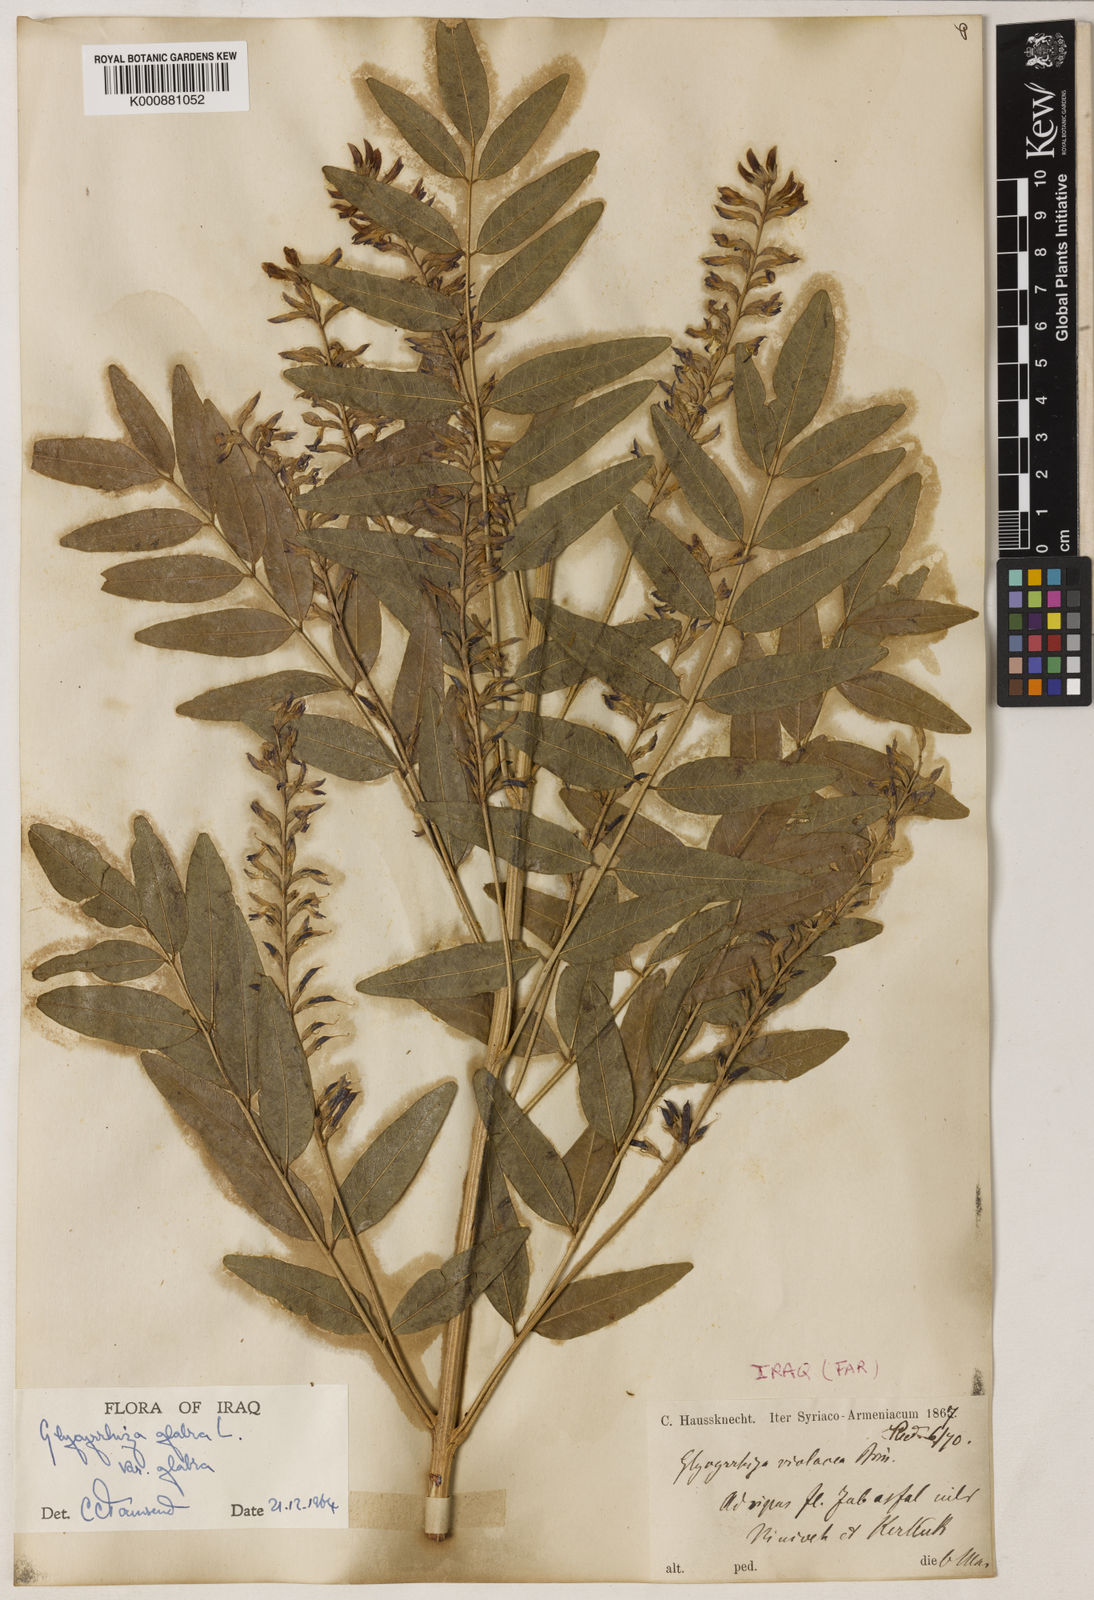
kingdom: Plantae
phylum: Tracheophyta
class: Magnoliopsida
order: Fabales
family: Fabaceae
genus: Glycyrrhiza
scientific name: Glycyrrhiza glabra
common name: Liquorice
